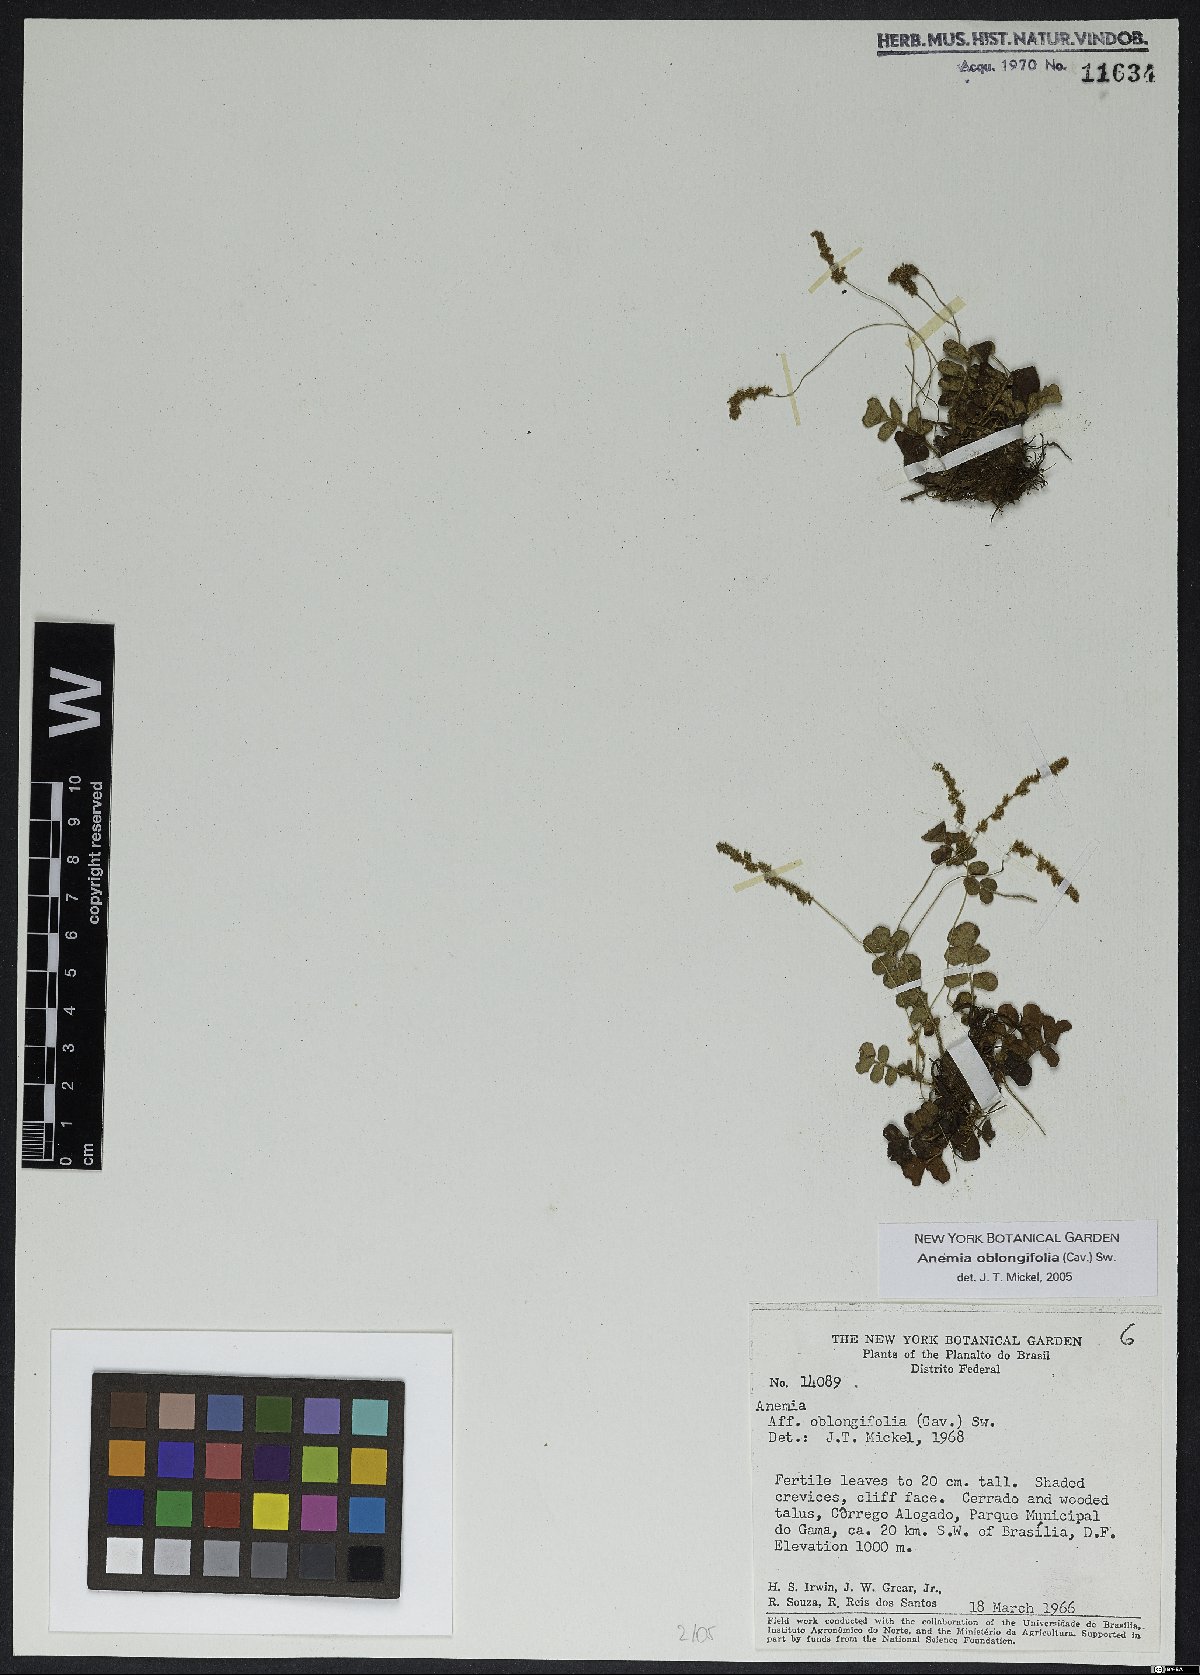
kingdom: Plantae
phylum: Tracheophyta
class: Polypodiopsida
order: Schizaeales
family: Anemiaceae
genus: Anemia
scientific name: Anemia oblongifolia
